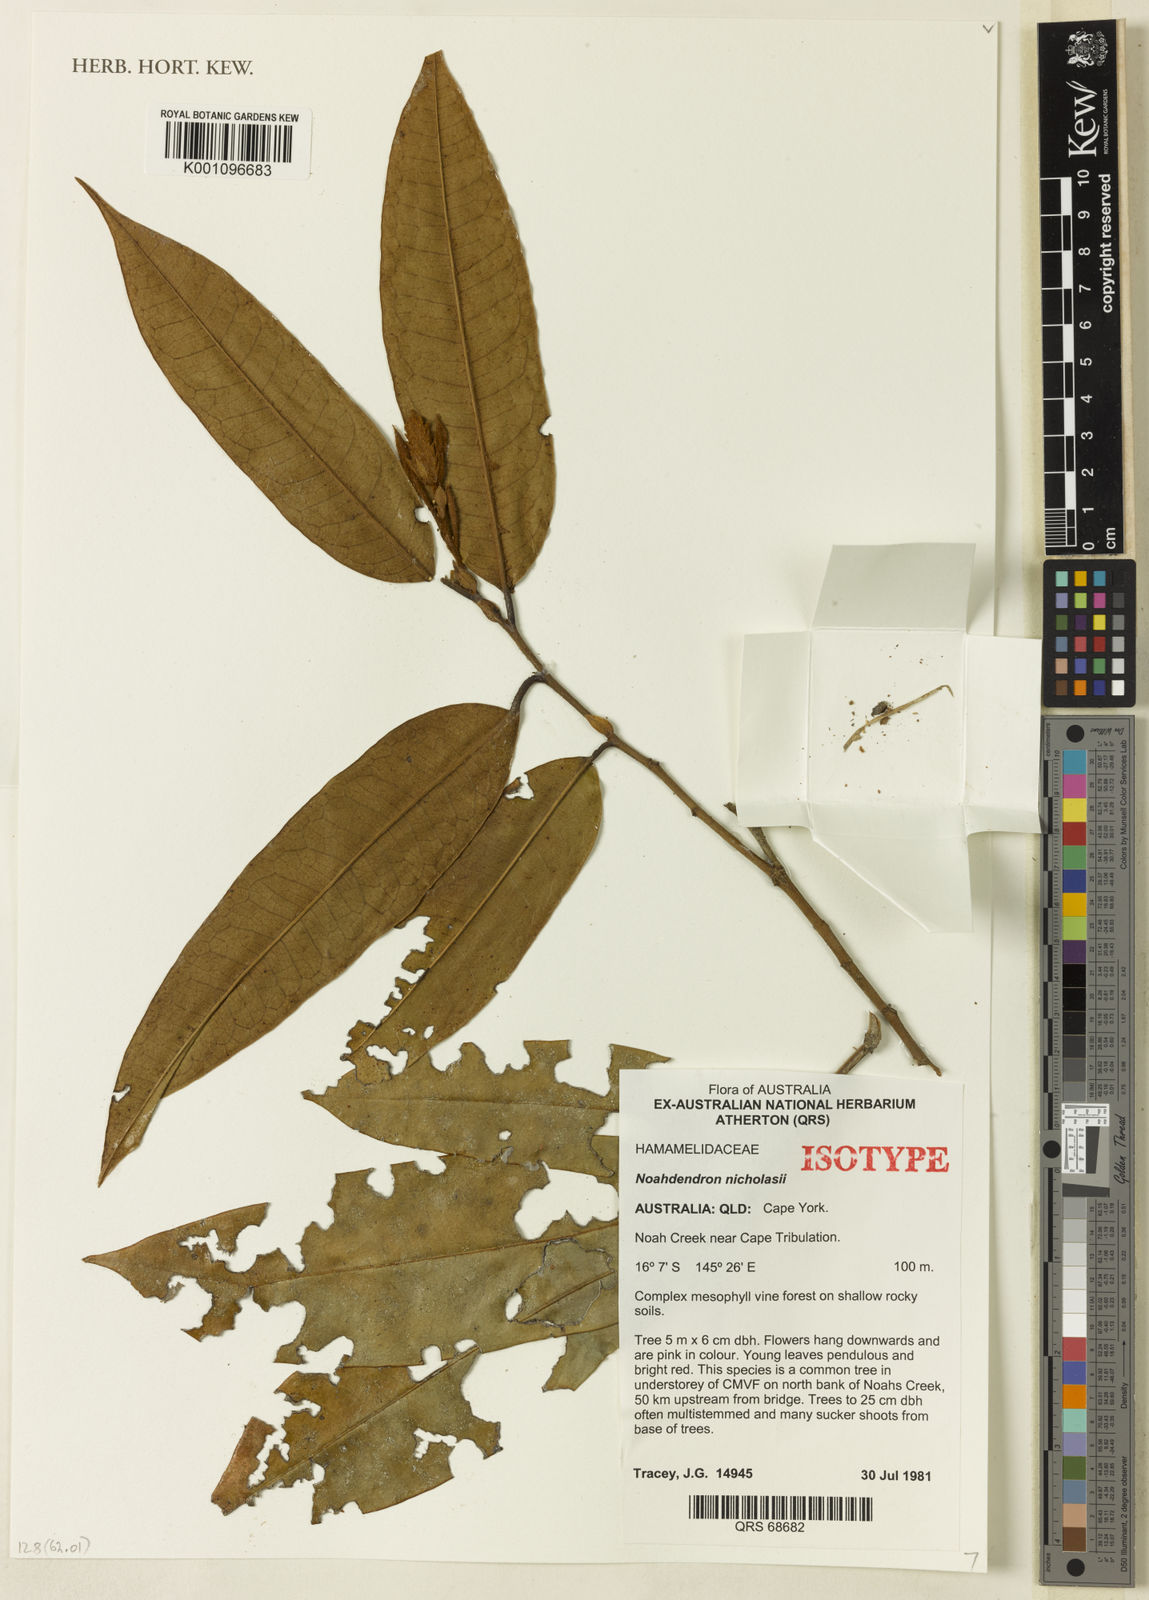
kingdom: Plantae
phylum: Tracheophyta
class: Magnoliopsida
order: Saxifragales
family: Hamamelidaceae
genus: Noahdendron
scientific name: Noahdendron nicholasii
